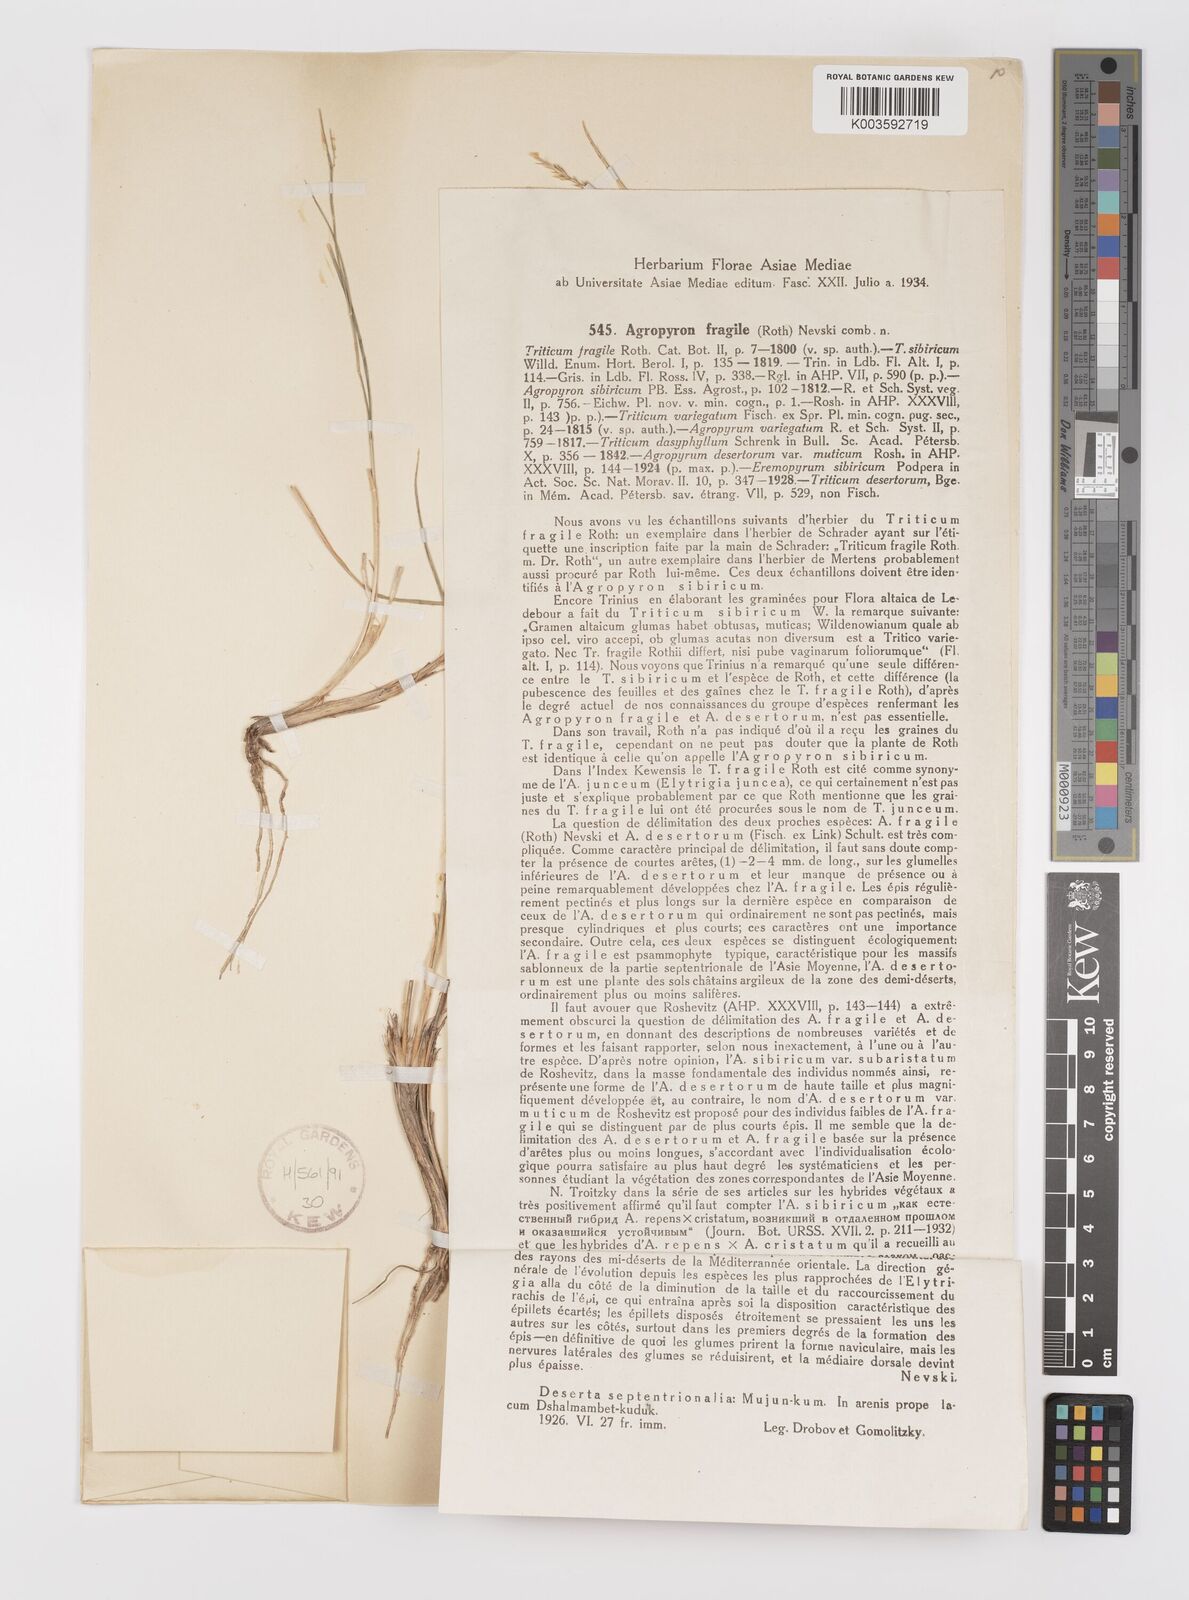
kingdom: Plantae
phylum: Tracheophyta
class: Liliopsida
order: Poales
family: Poaceae
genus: Agropyron
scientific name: Agropyron fragile
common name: Siberian wheatgrass
